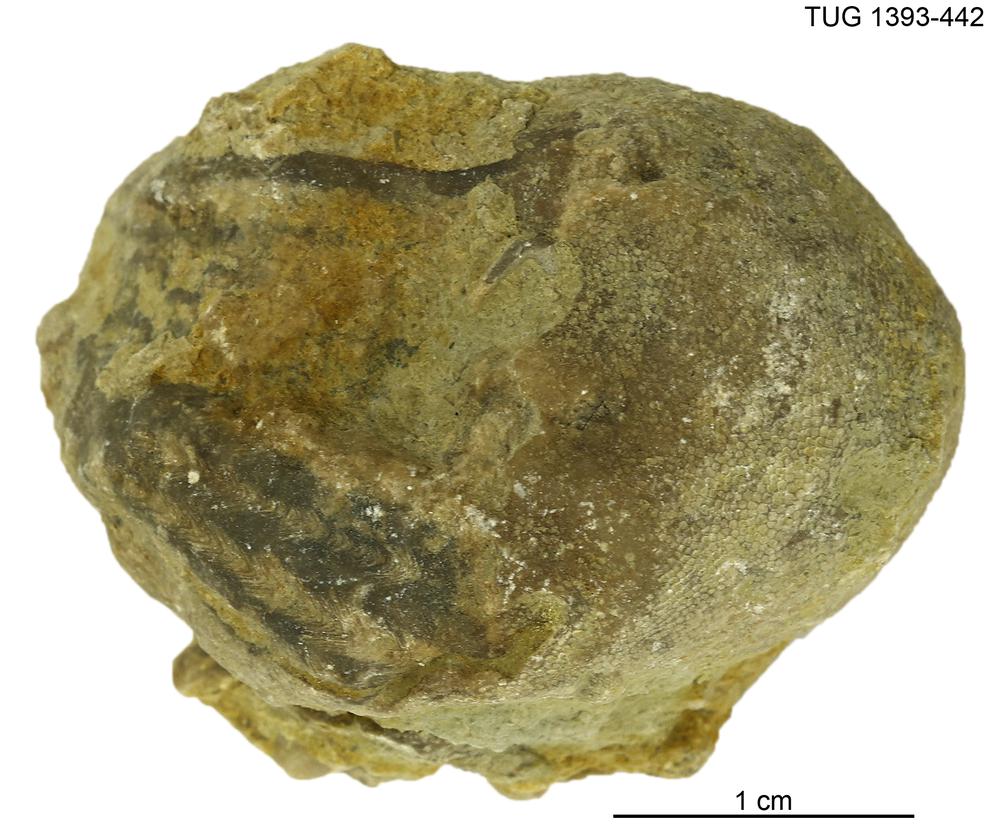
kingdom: Animalia
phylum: Bryozoa
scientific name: Bryozoa
